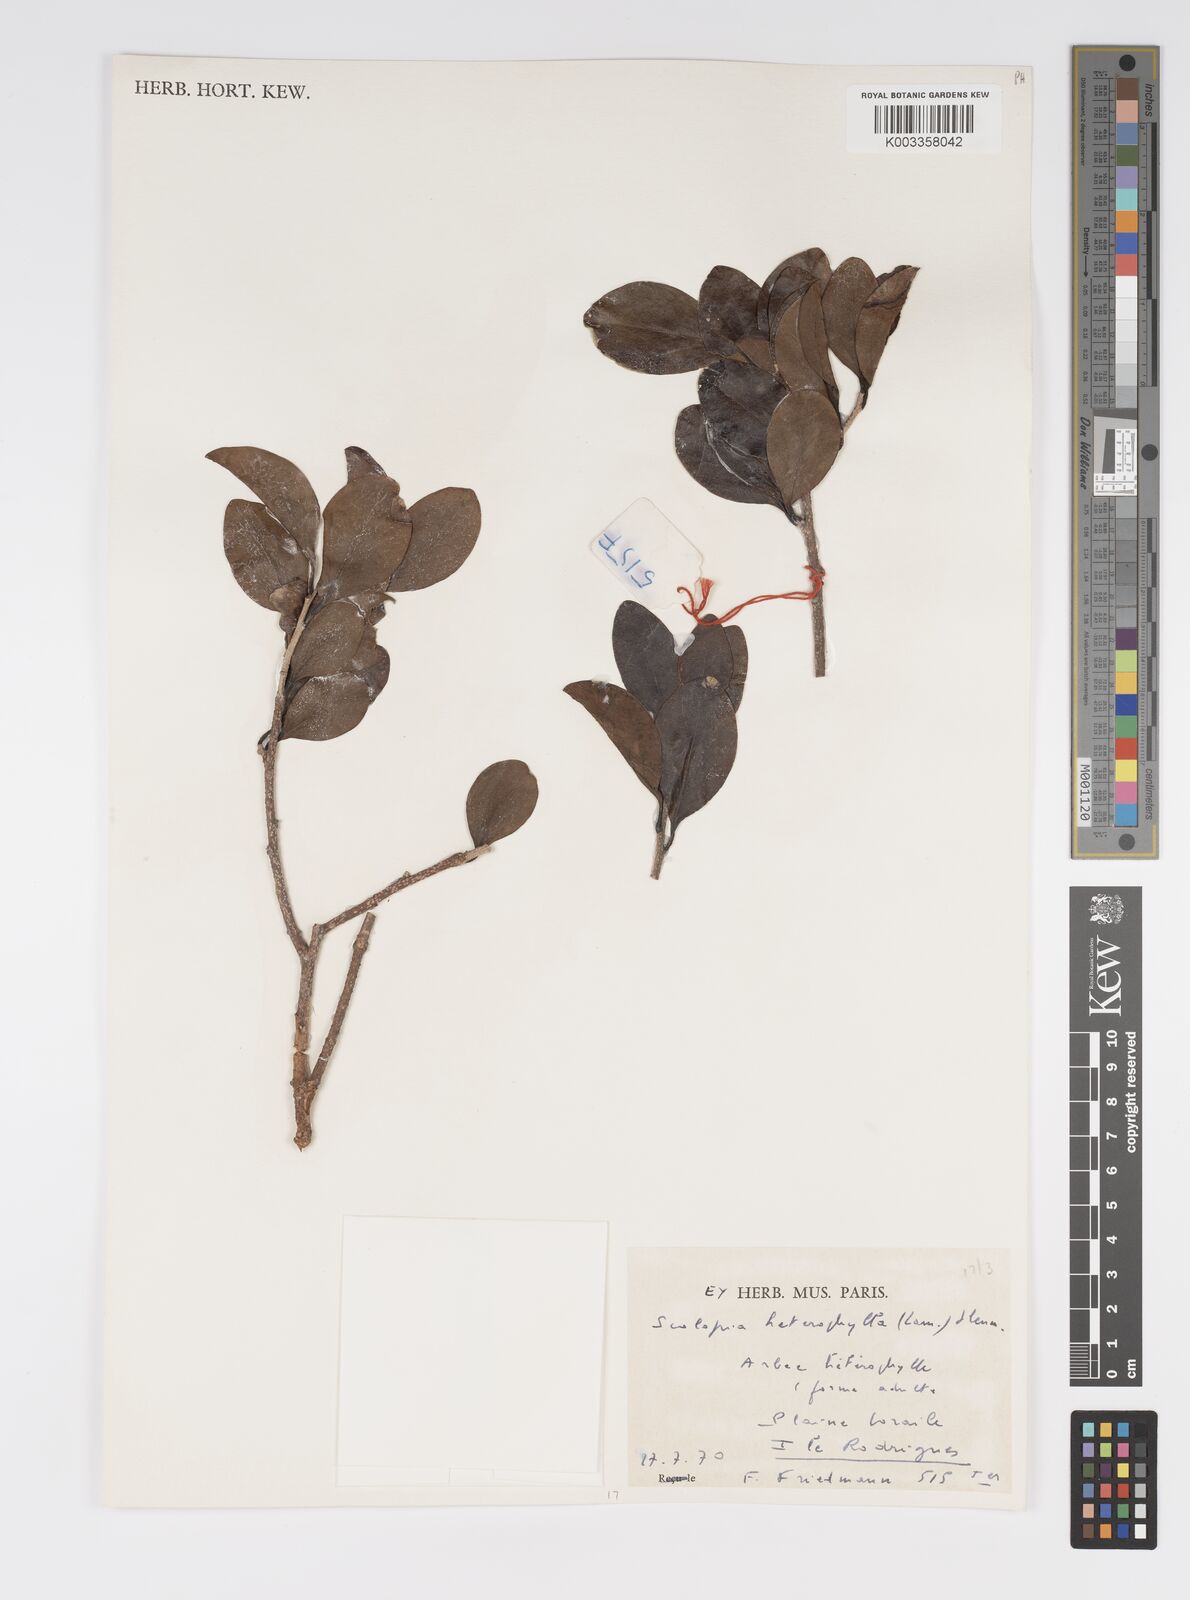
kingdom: Plantae
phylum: Tracheophyta
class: Magnoliopsida
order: Malpighiales
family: Salicaceae
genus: Scolopia
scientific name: Scolopia heterophylla
